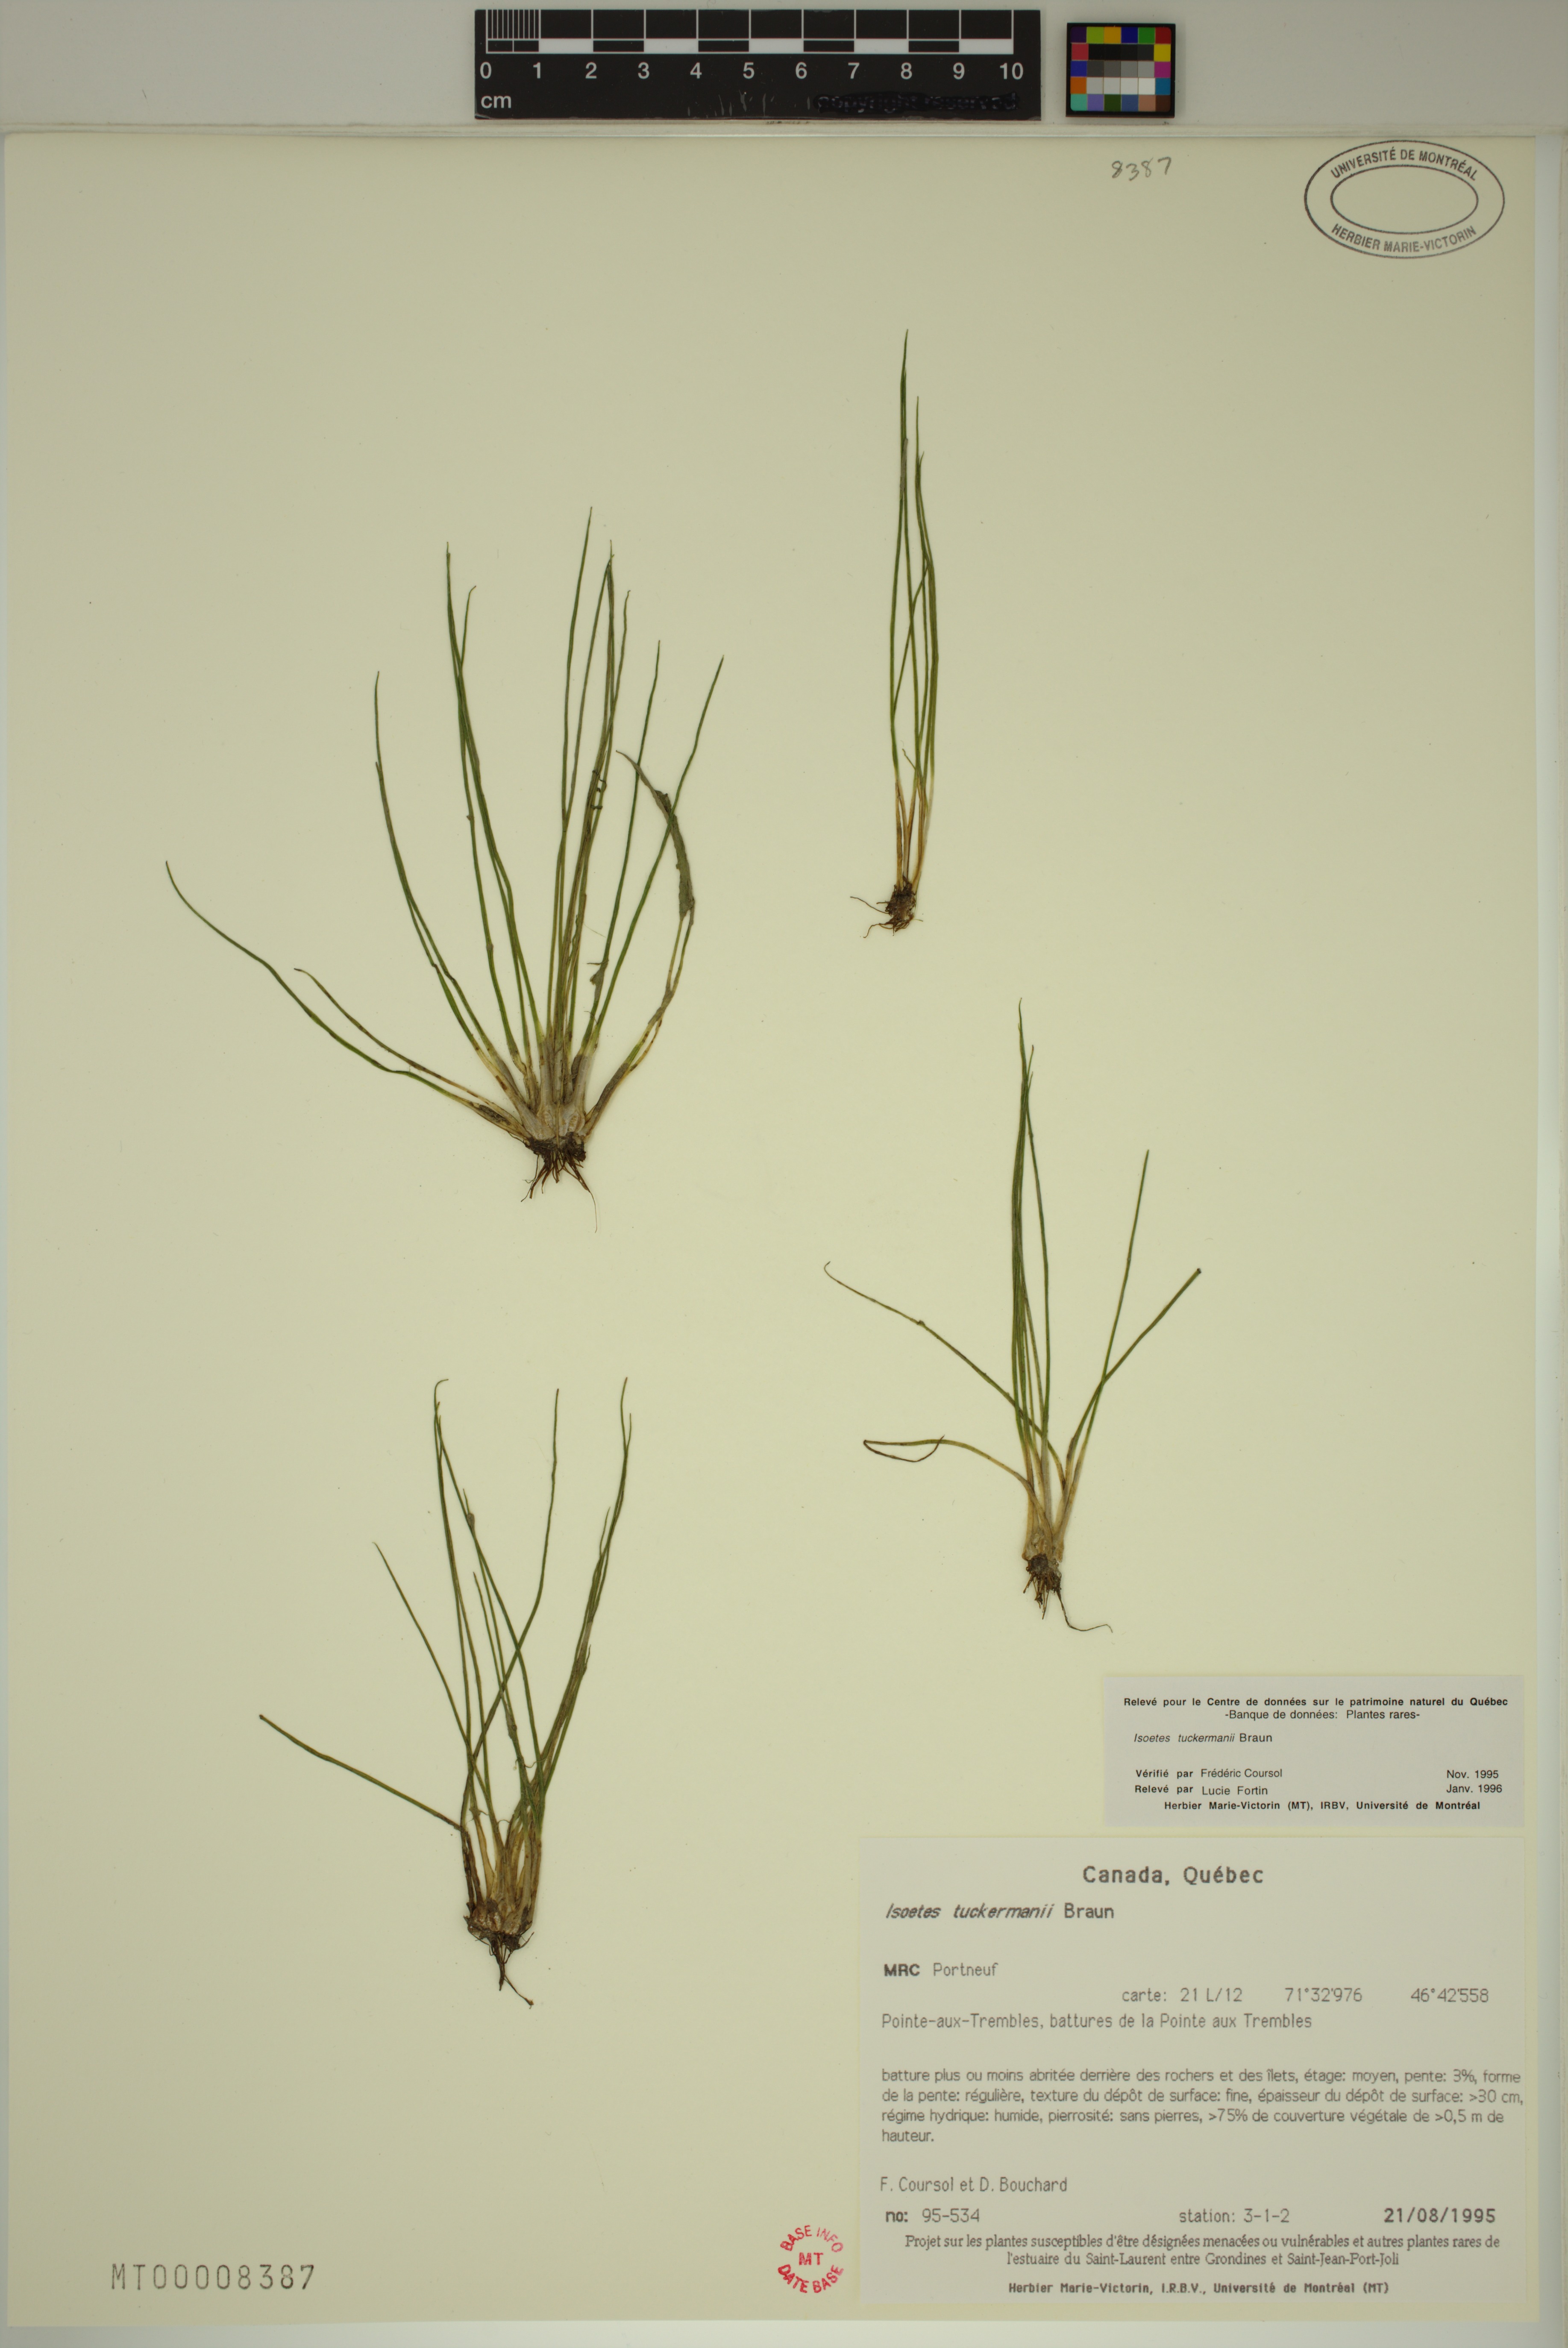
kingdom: Plantae
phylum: Tracheophyta
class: Lycopodiopsida
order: Isoetales
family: Isoetaceae
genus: Isoetes
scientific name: Isoetes laurentiana
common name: St. lawrence quillwort
